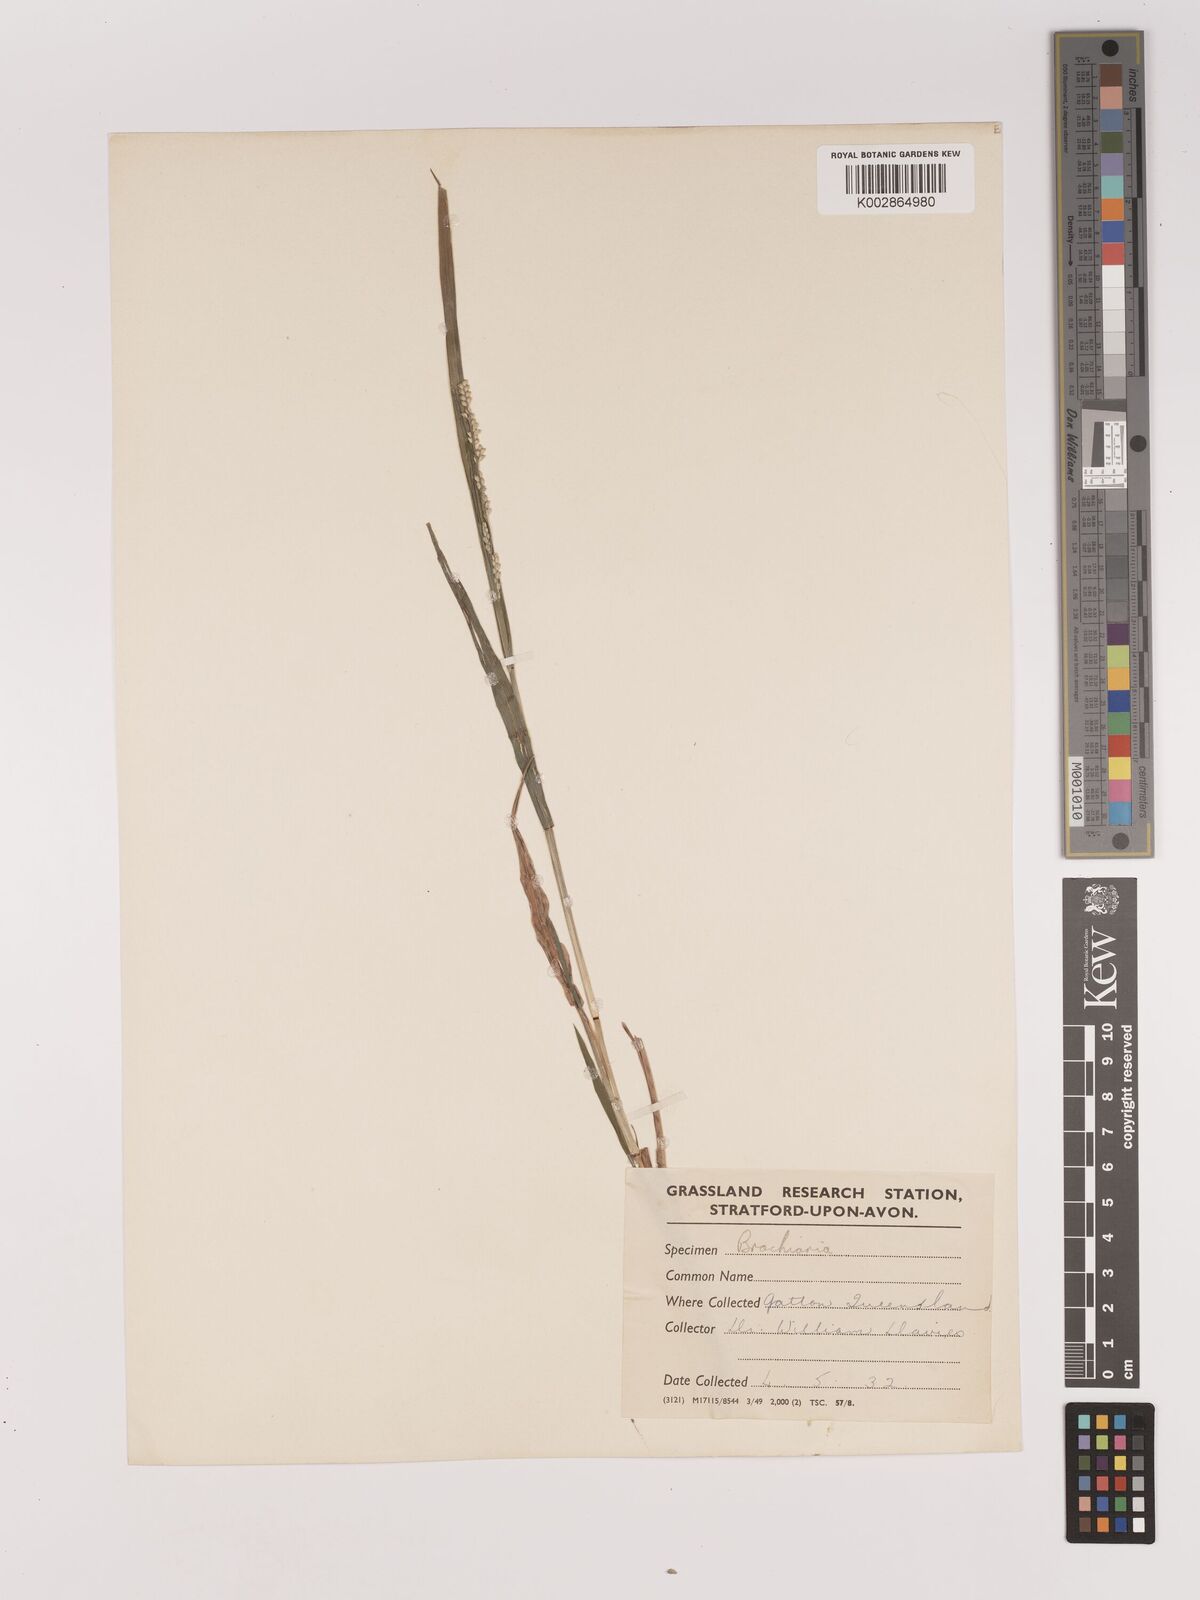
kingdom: Plantae
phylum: Tracheophyta
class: Liliopsida
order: Poales
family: Poaceae
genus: Setaria
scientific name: Setaria
